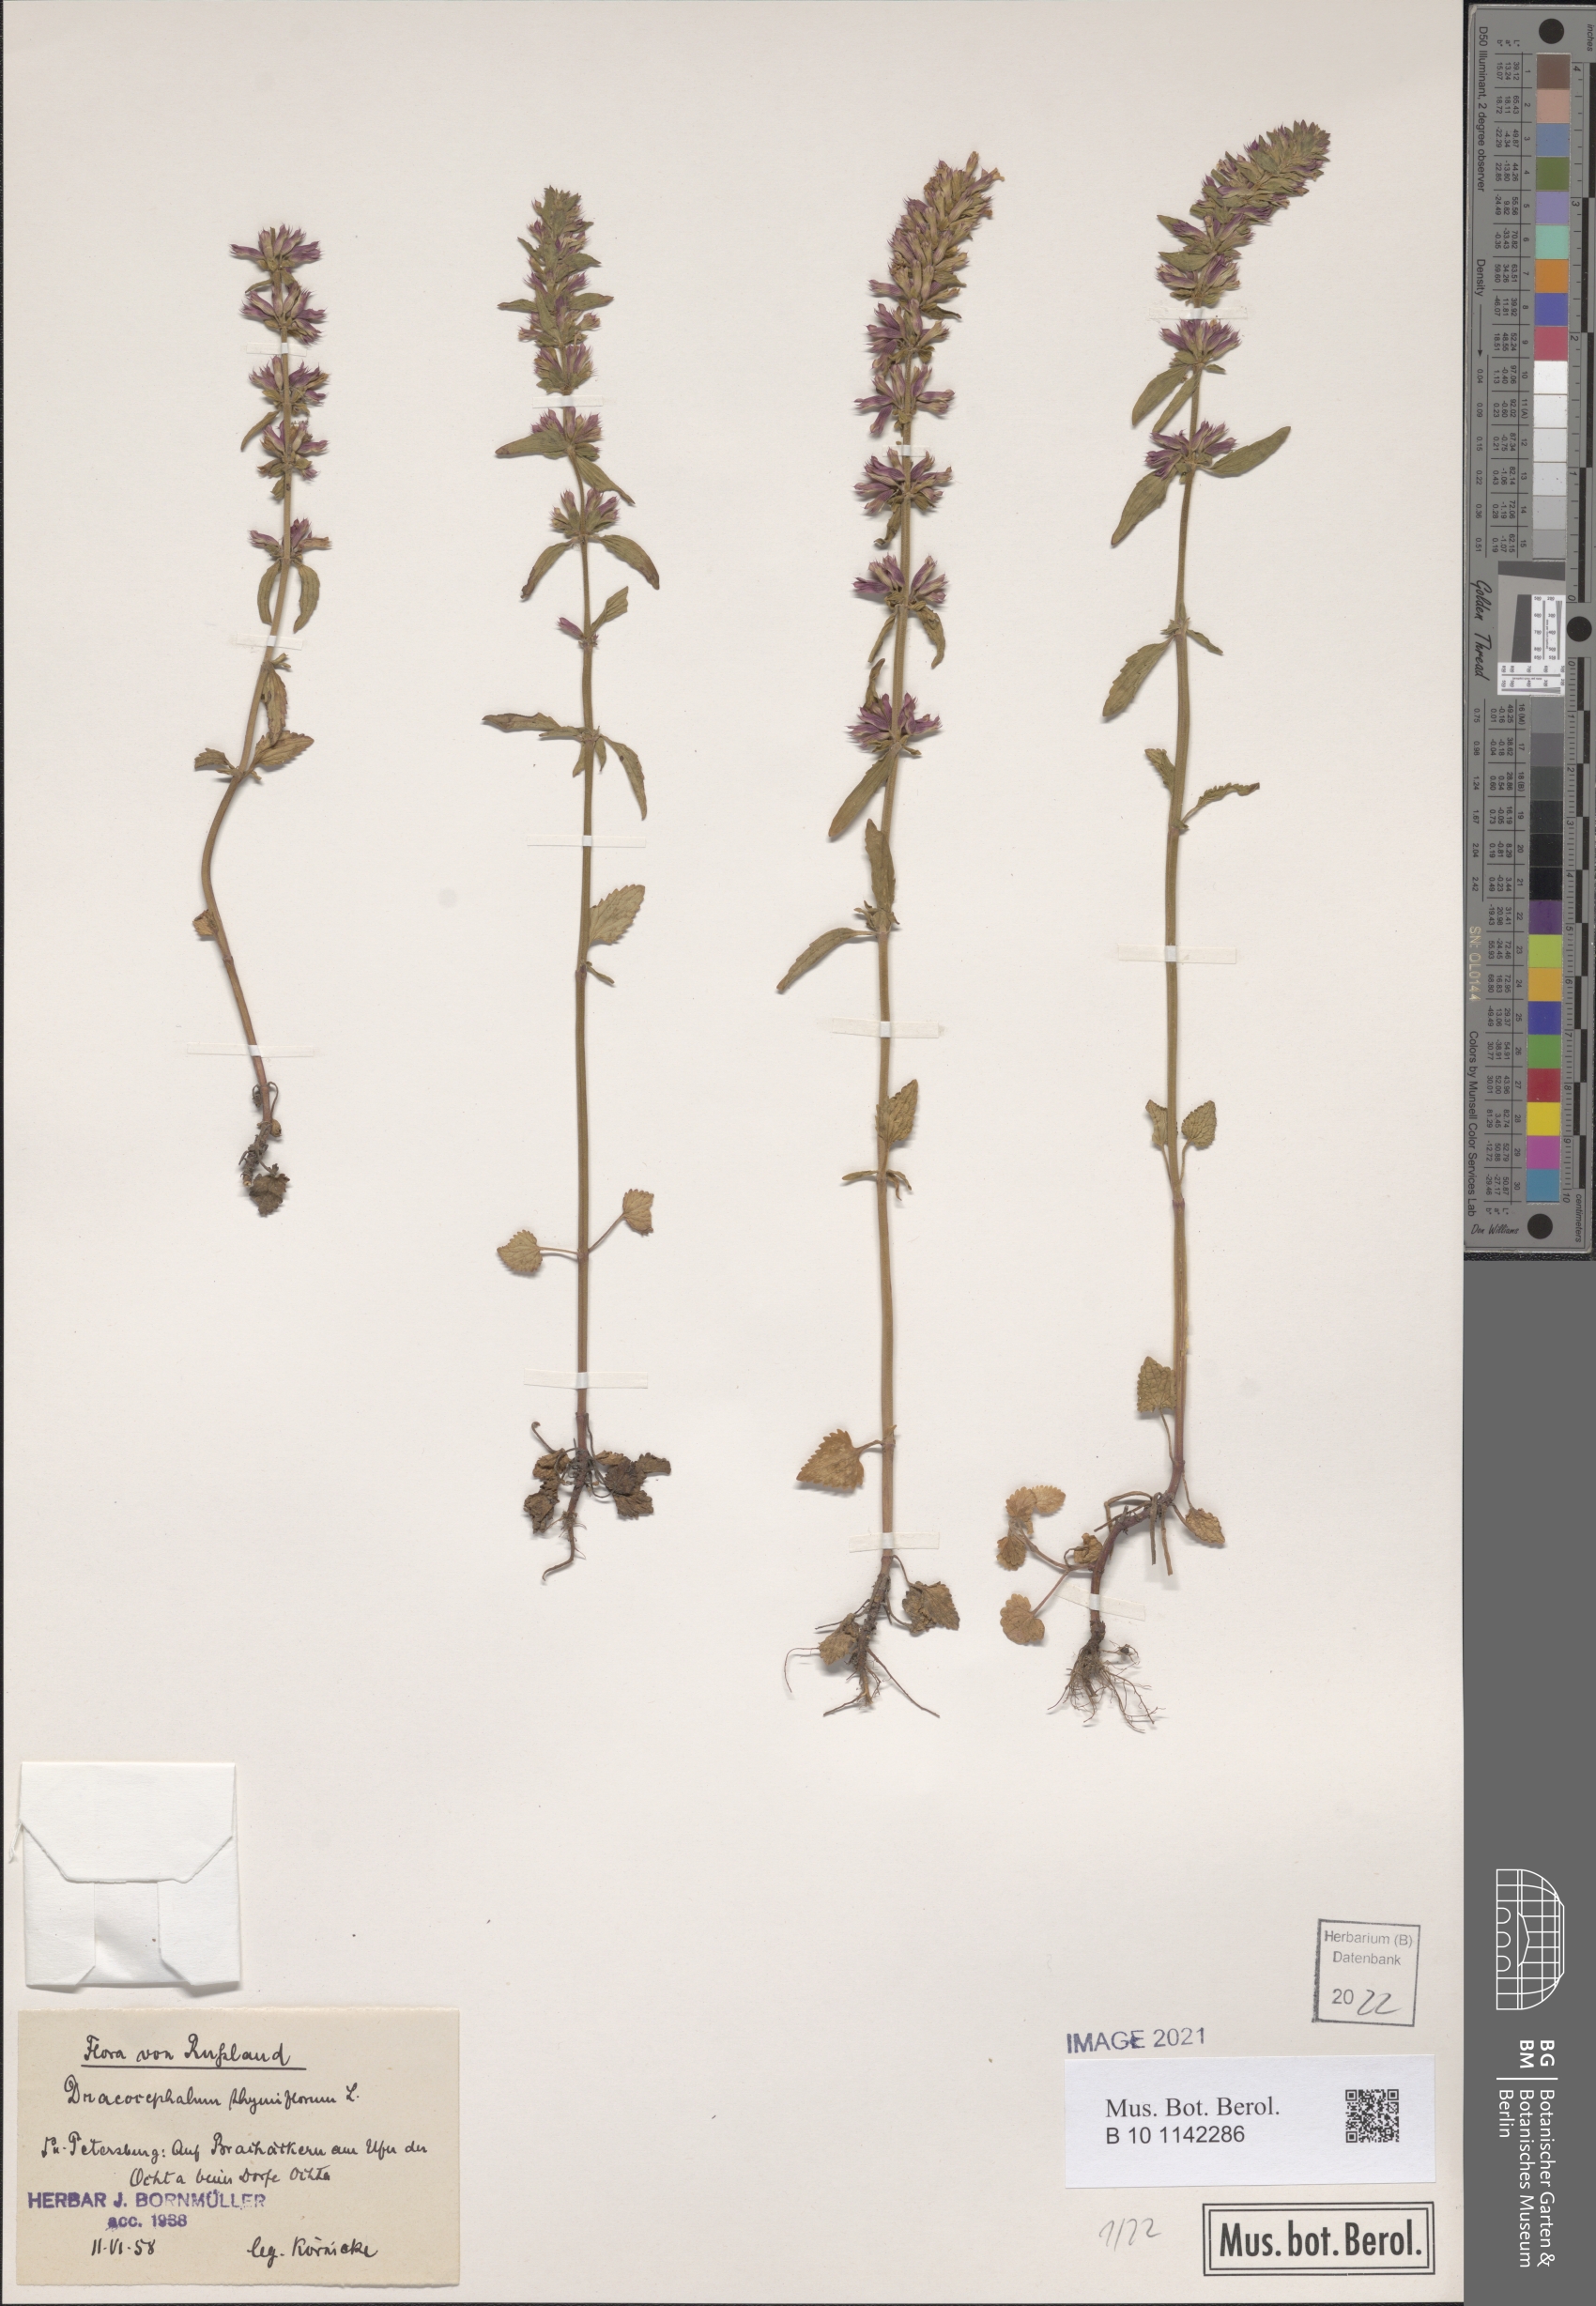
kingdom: Plantae
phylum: Tracheophyta
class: Magnoliopsida
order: Lamiales
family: Lamiaceae
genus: Dracocephalum
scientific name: Dracocephalum thymiflorum
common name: Thymeleaf dragonhead
